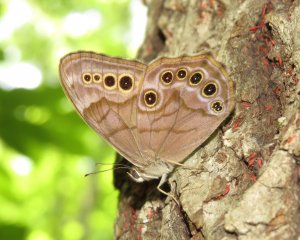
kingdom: Animalia
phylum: Arthropoda
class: Insecta
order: Lepidoptera
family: Nymphalidae
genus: Lethe
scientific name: Lethe anthedon
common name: Northern Pearly-Eye
